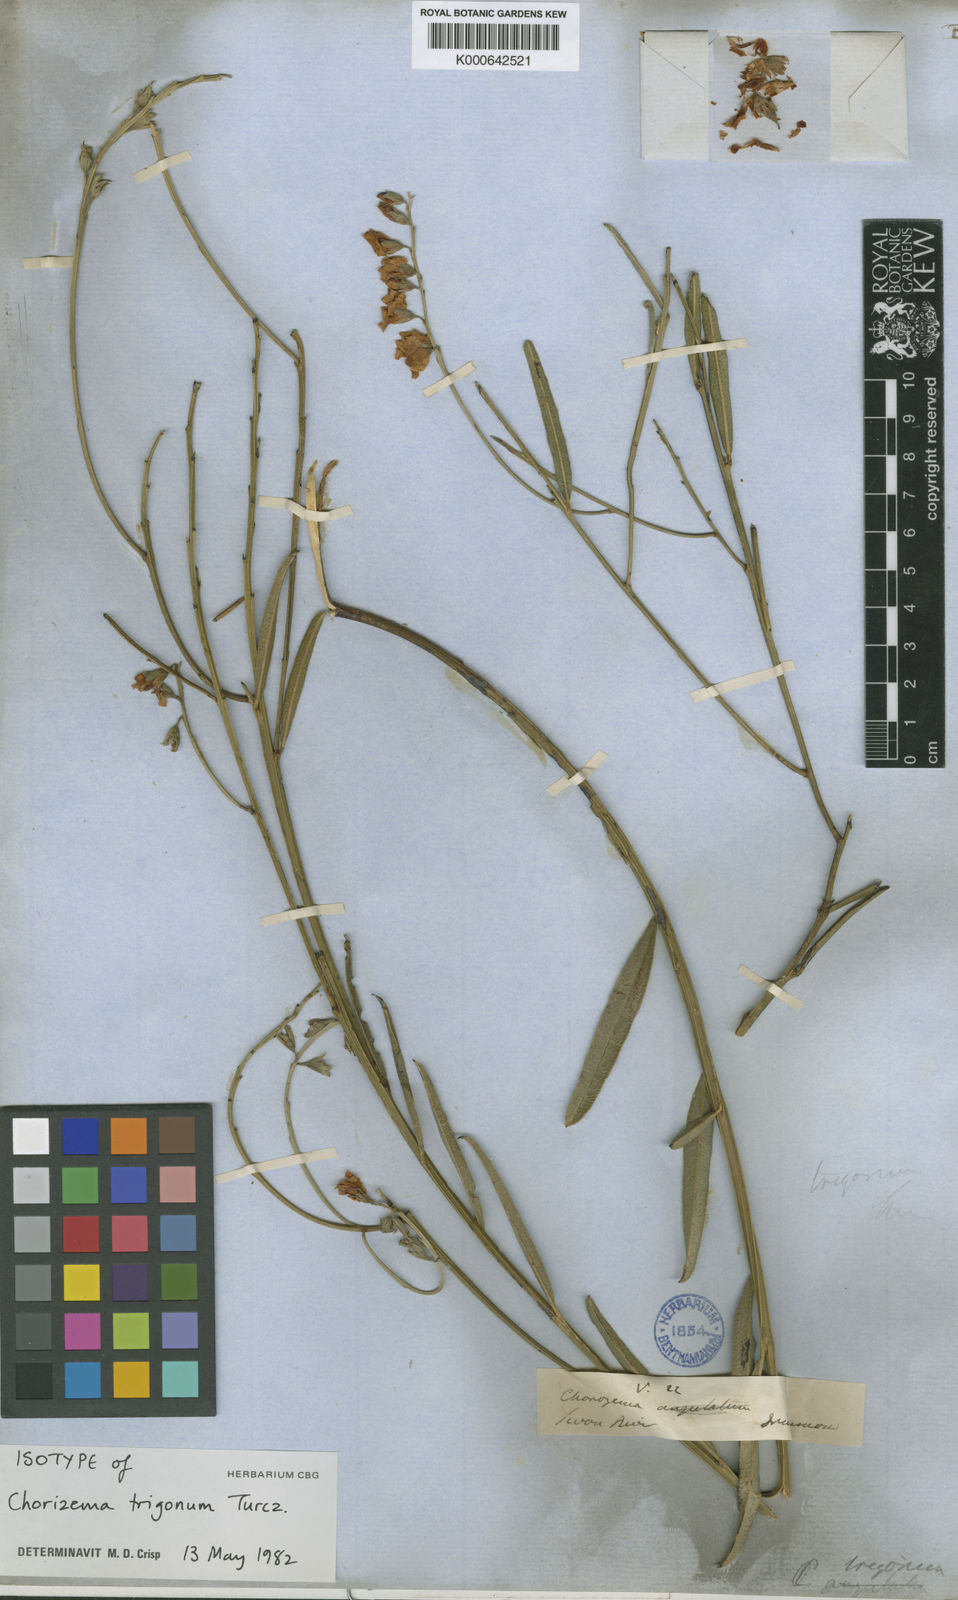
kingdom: Plantae
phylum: Tracheophyta
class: Magnoliopsida
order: Fabales
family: Fabaceae
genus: Chorizema
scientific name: Chorizema trigonum
